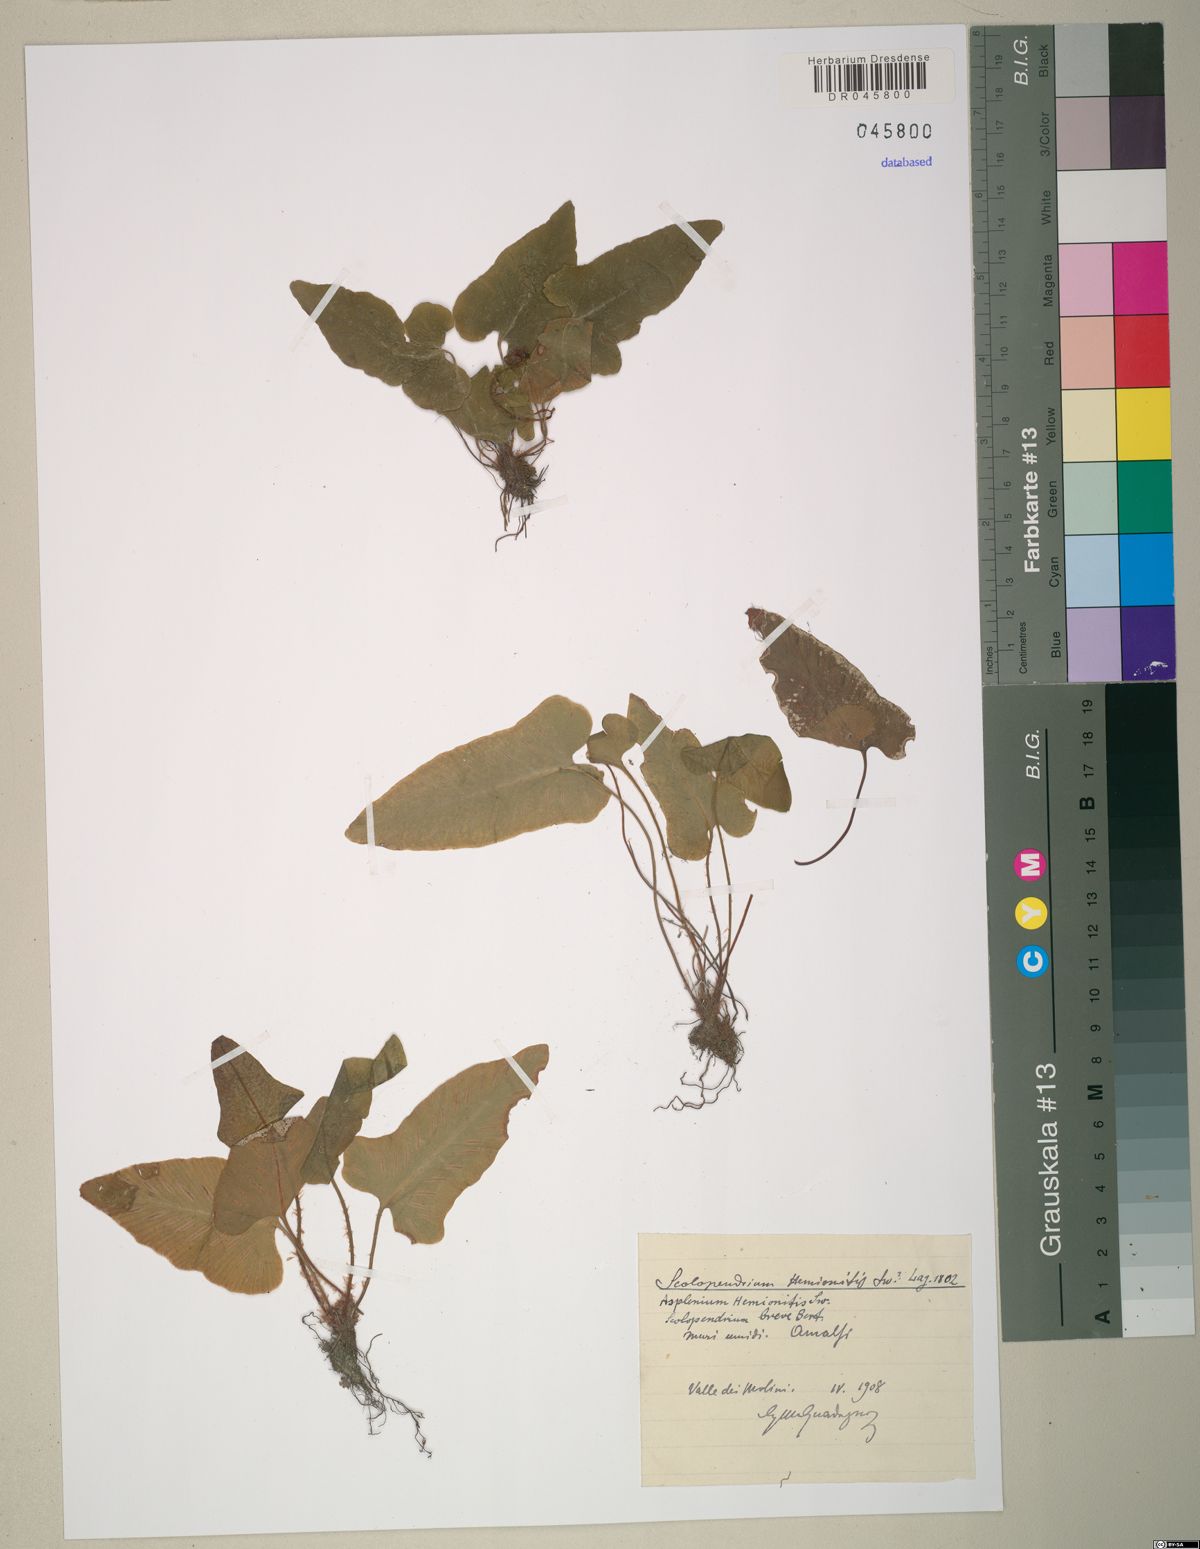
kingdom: Plantae
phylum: Tracheophyta
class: Polypodiopsida
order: Polypodiales
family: Aspleniaceae
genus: Asplenium
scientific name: Asplenium hemionitis
